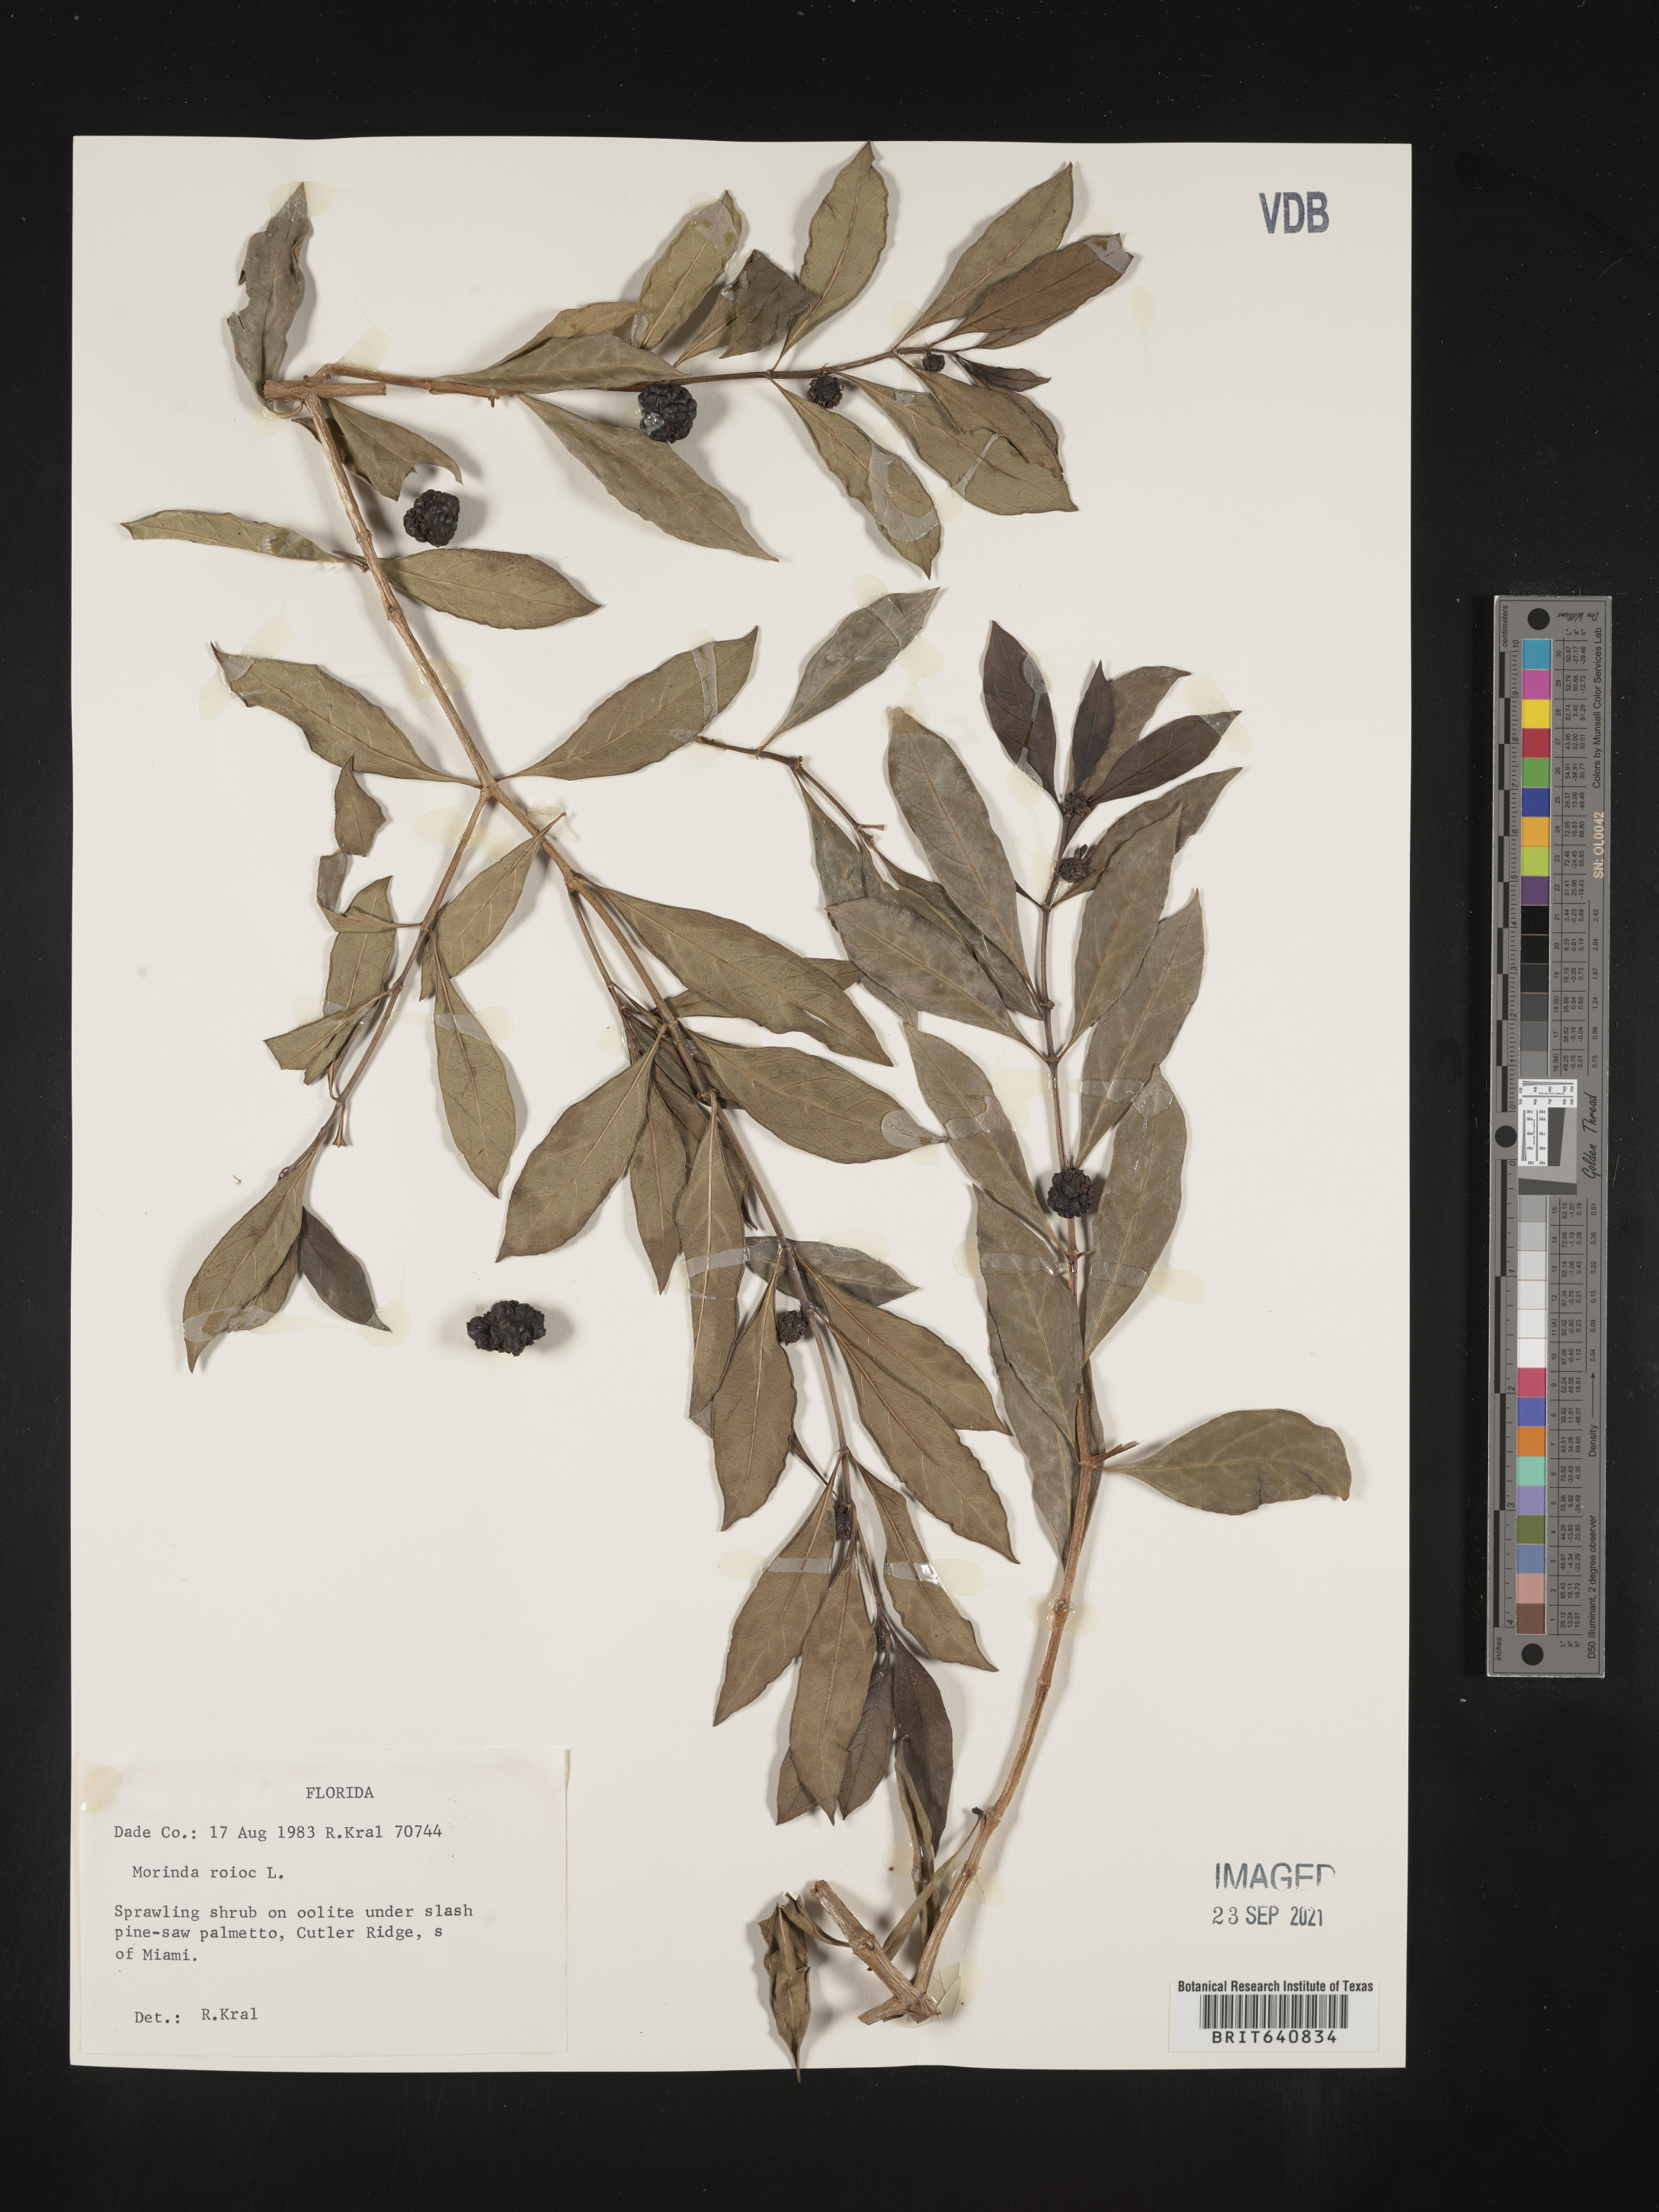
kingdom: Plantae
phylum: Tracheophyta
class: Magnoliopsida
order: Gentianales
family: Rubiaceae
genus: Morinda
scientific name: Morinda
